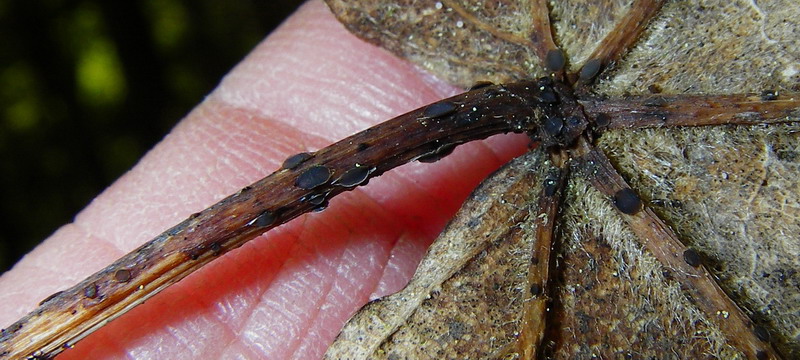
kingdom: Fungi
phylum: Ascomycota
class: Leotiomycetes
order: Helotiales
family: Ploettnerulaceae
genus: Pyrenopeziza
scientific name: Pyrenopeziza petiolaris
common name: ahorn-kerneskive
